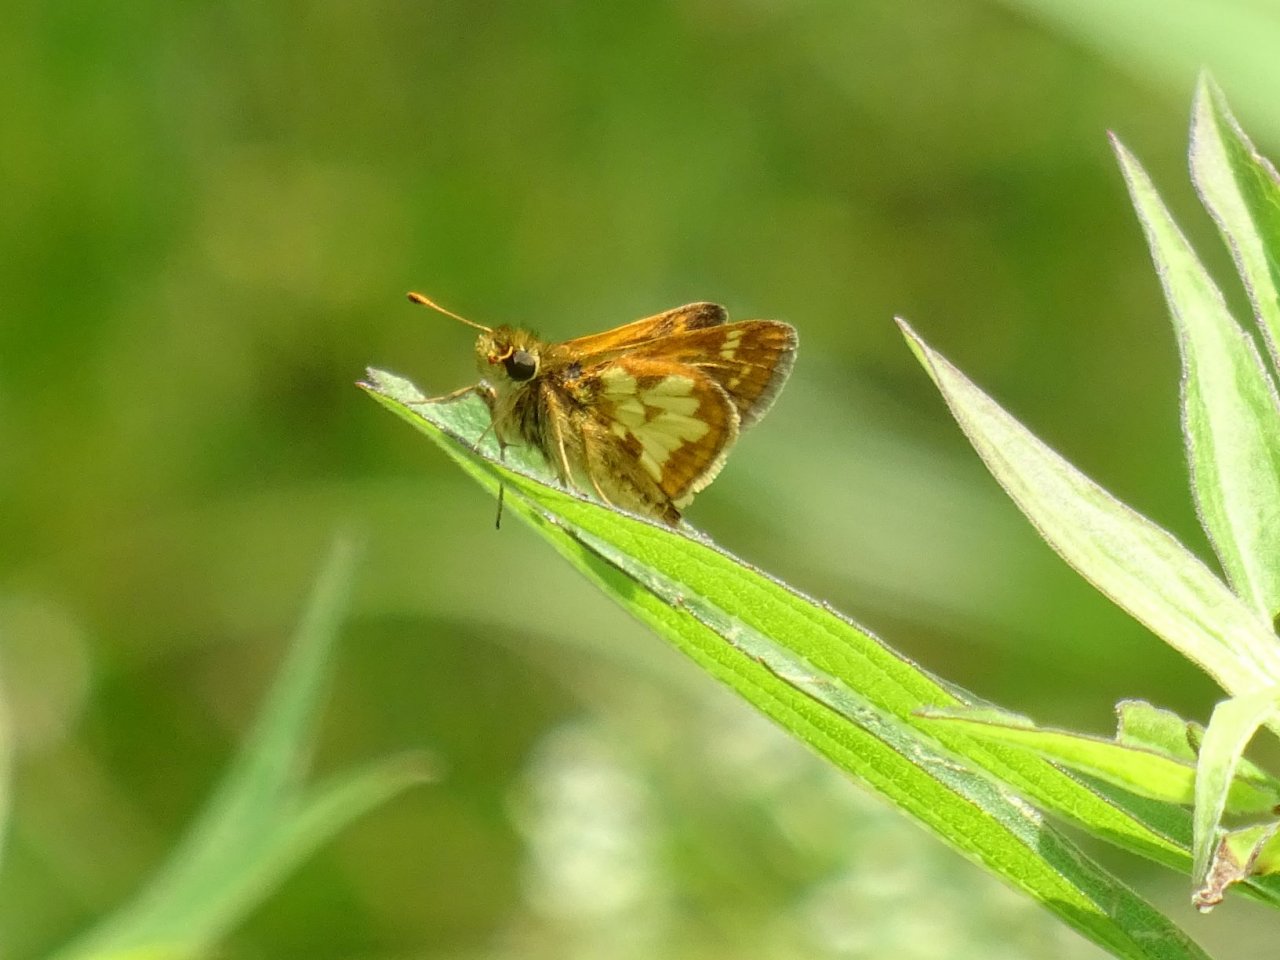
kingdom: Animalia
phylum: Arthropoda
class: Insecta
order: Lepidoptera
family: Hesperiidae
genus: Polites
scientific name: Polites coras
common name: Peck's Skipper
